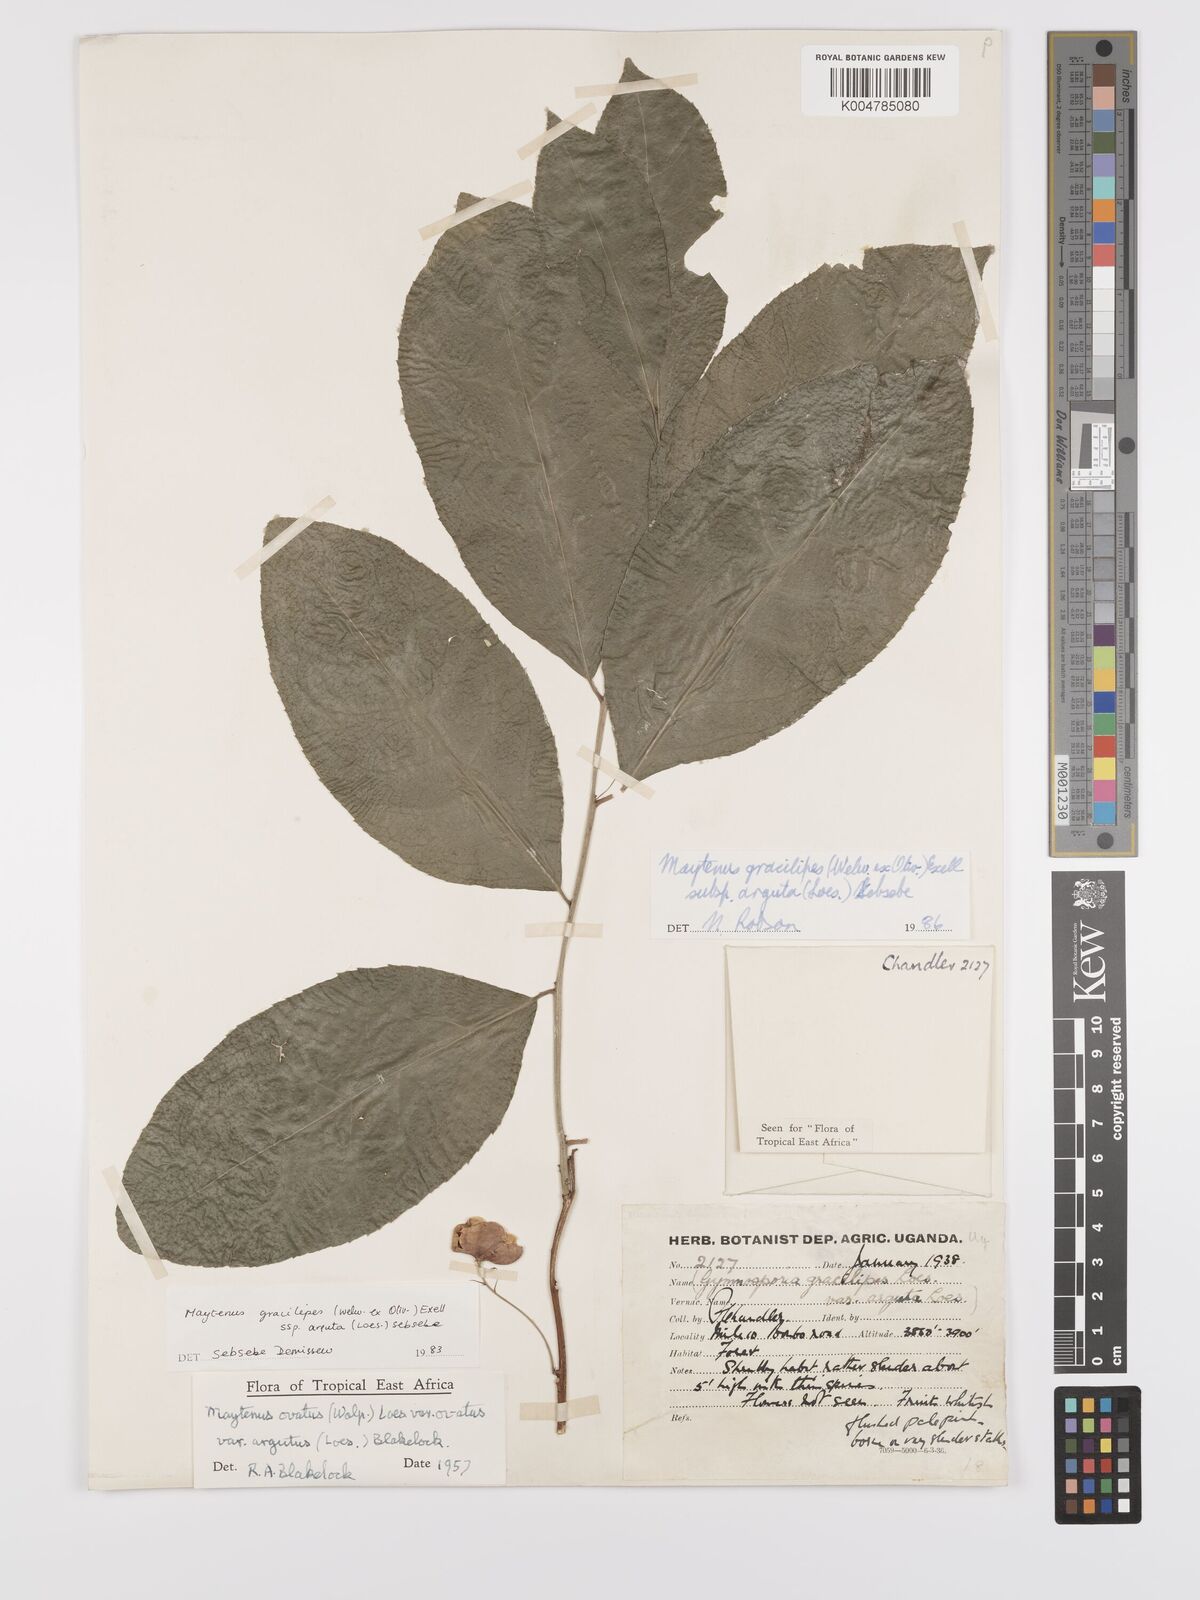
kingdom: Plantae
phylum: Tracheophyta
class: Magnoliopsida
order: Celastrales
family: Celastraceae
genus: Gymnosporia
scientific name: Gymnosporia gracilipes
